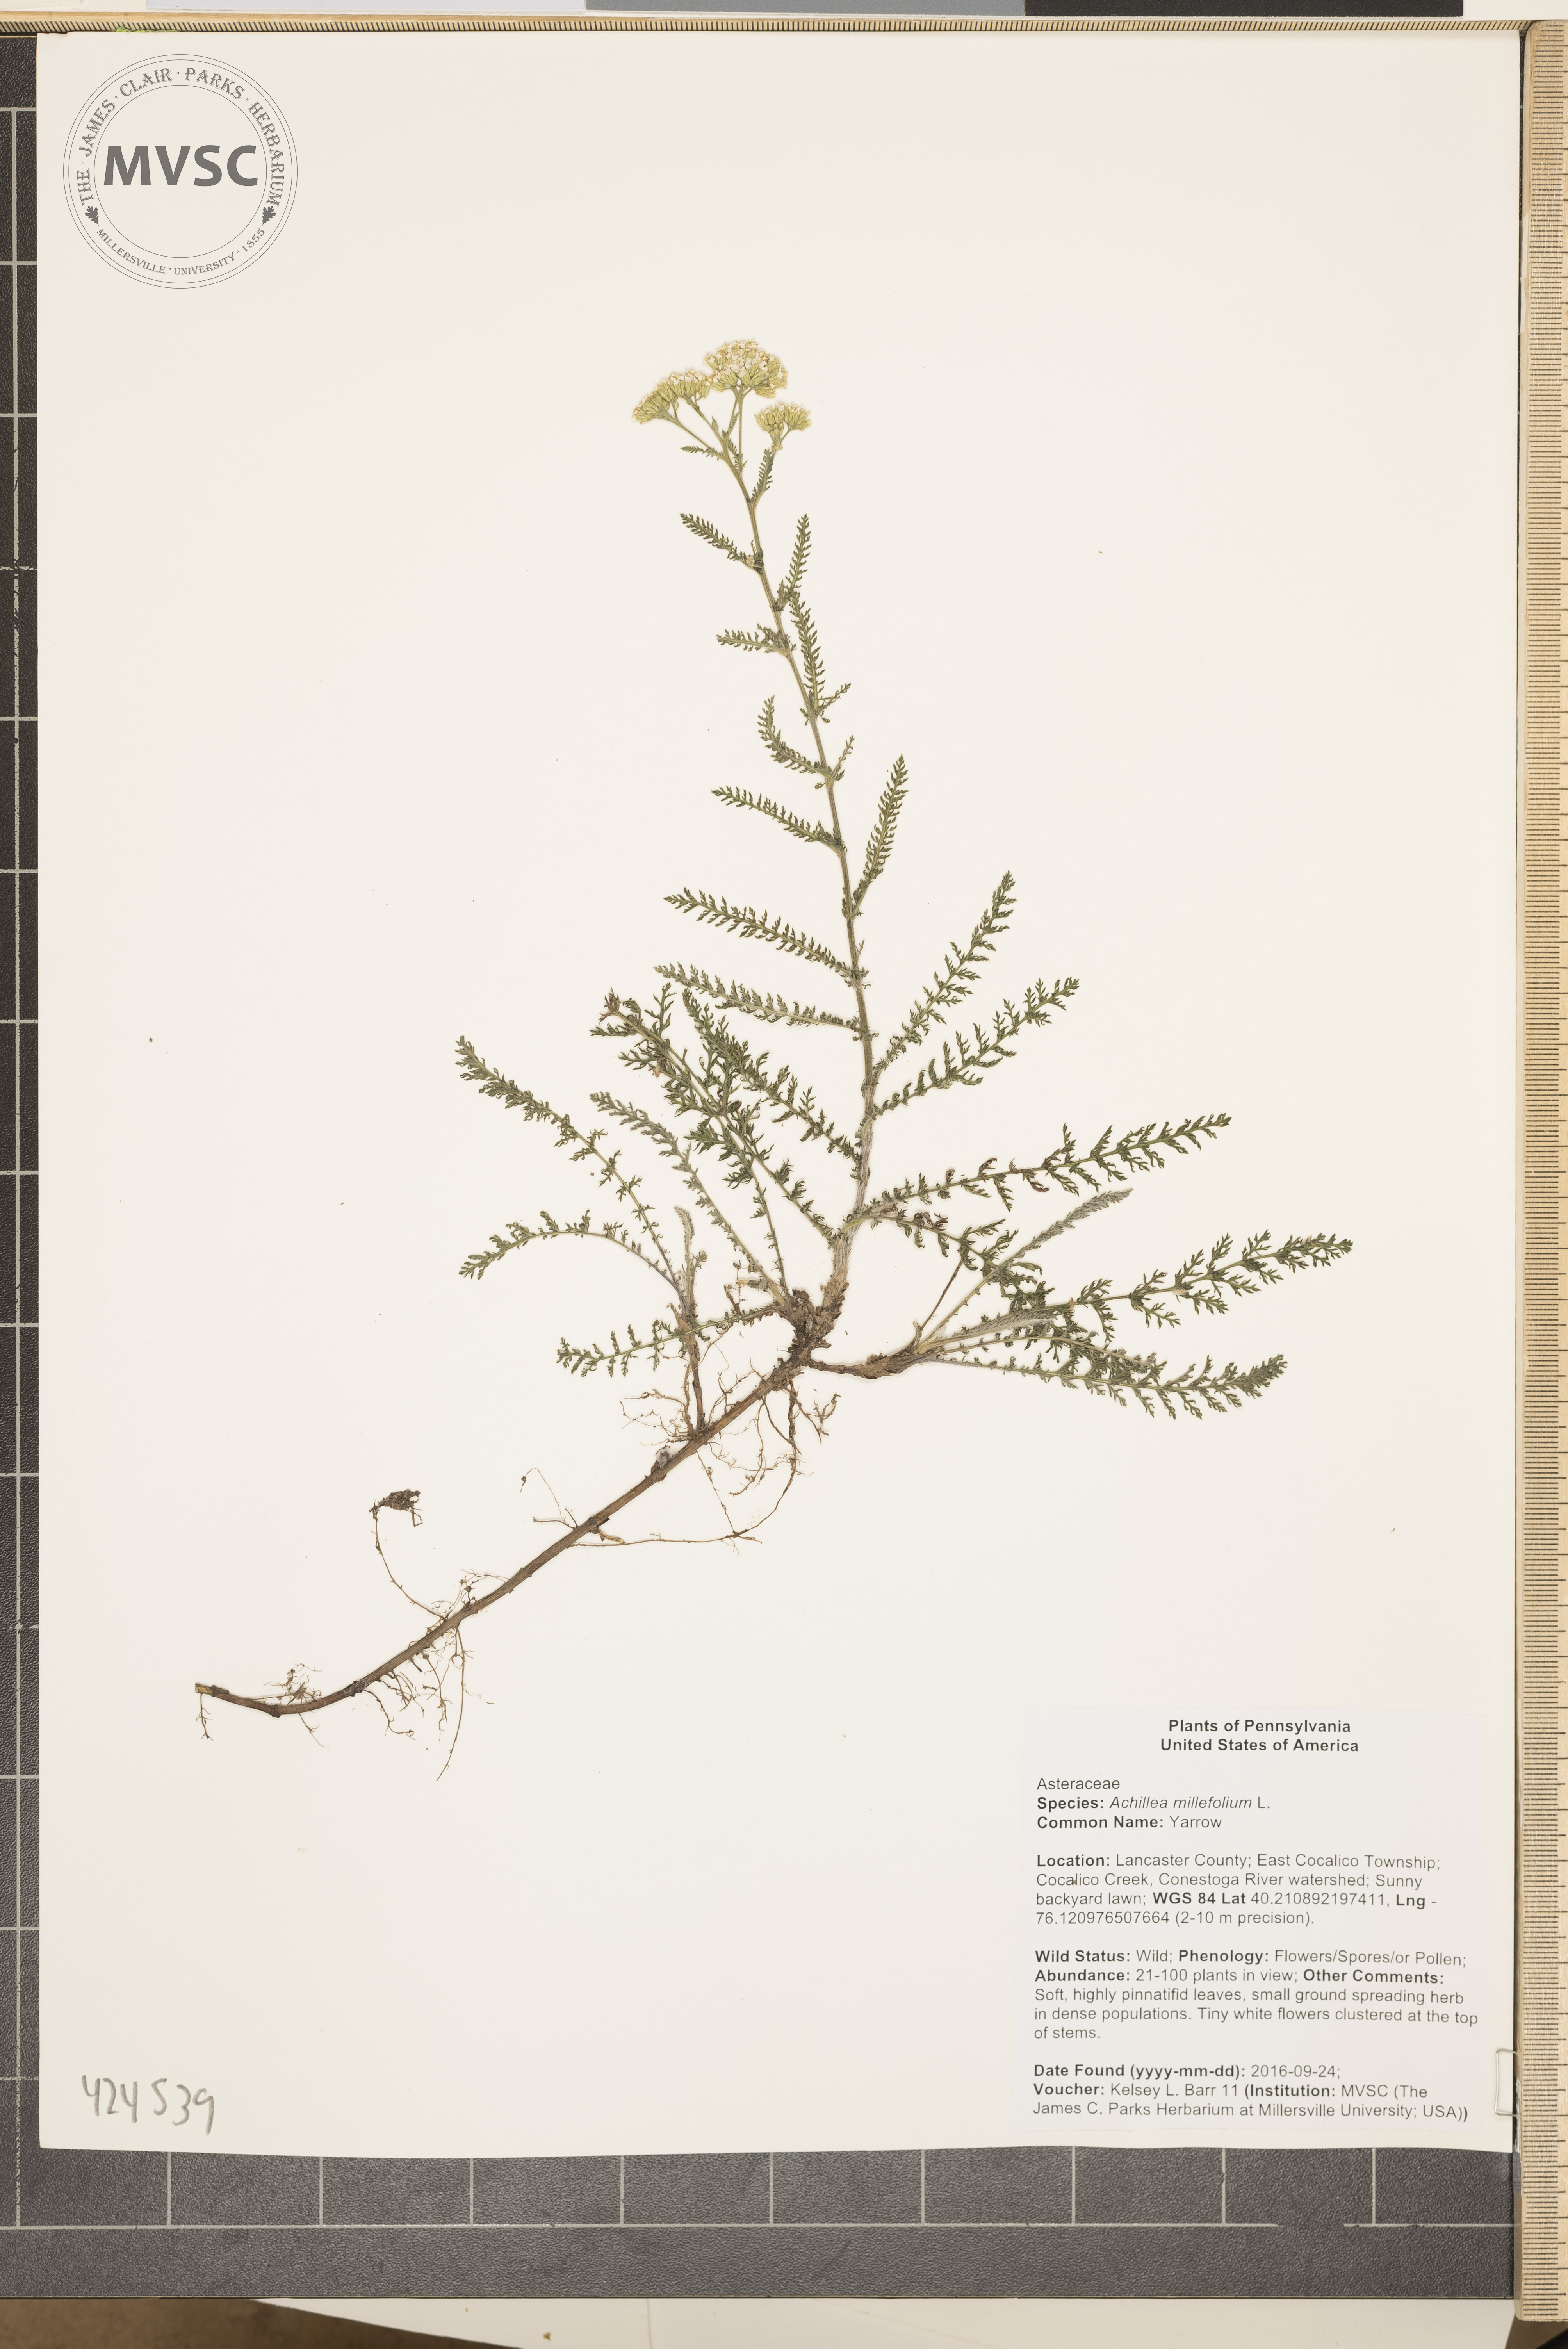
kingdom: Plantae
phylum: Tracheophyta
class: Magnoliopsida
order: Asterales
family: Asteraceae
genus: Achillea
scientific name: Achillea millefolium
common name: Yarrow
